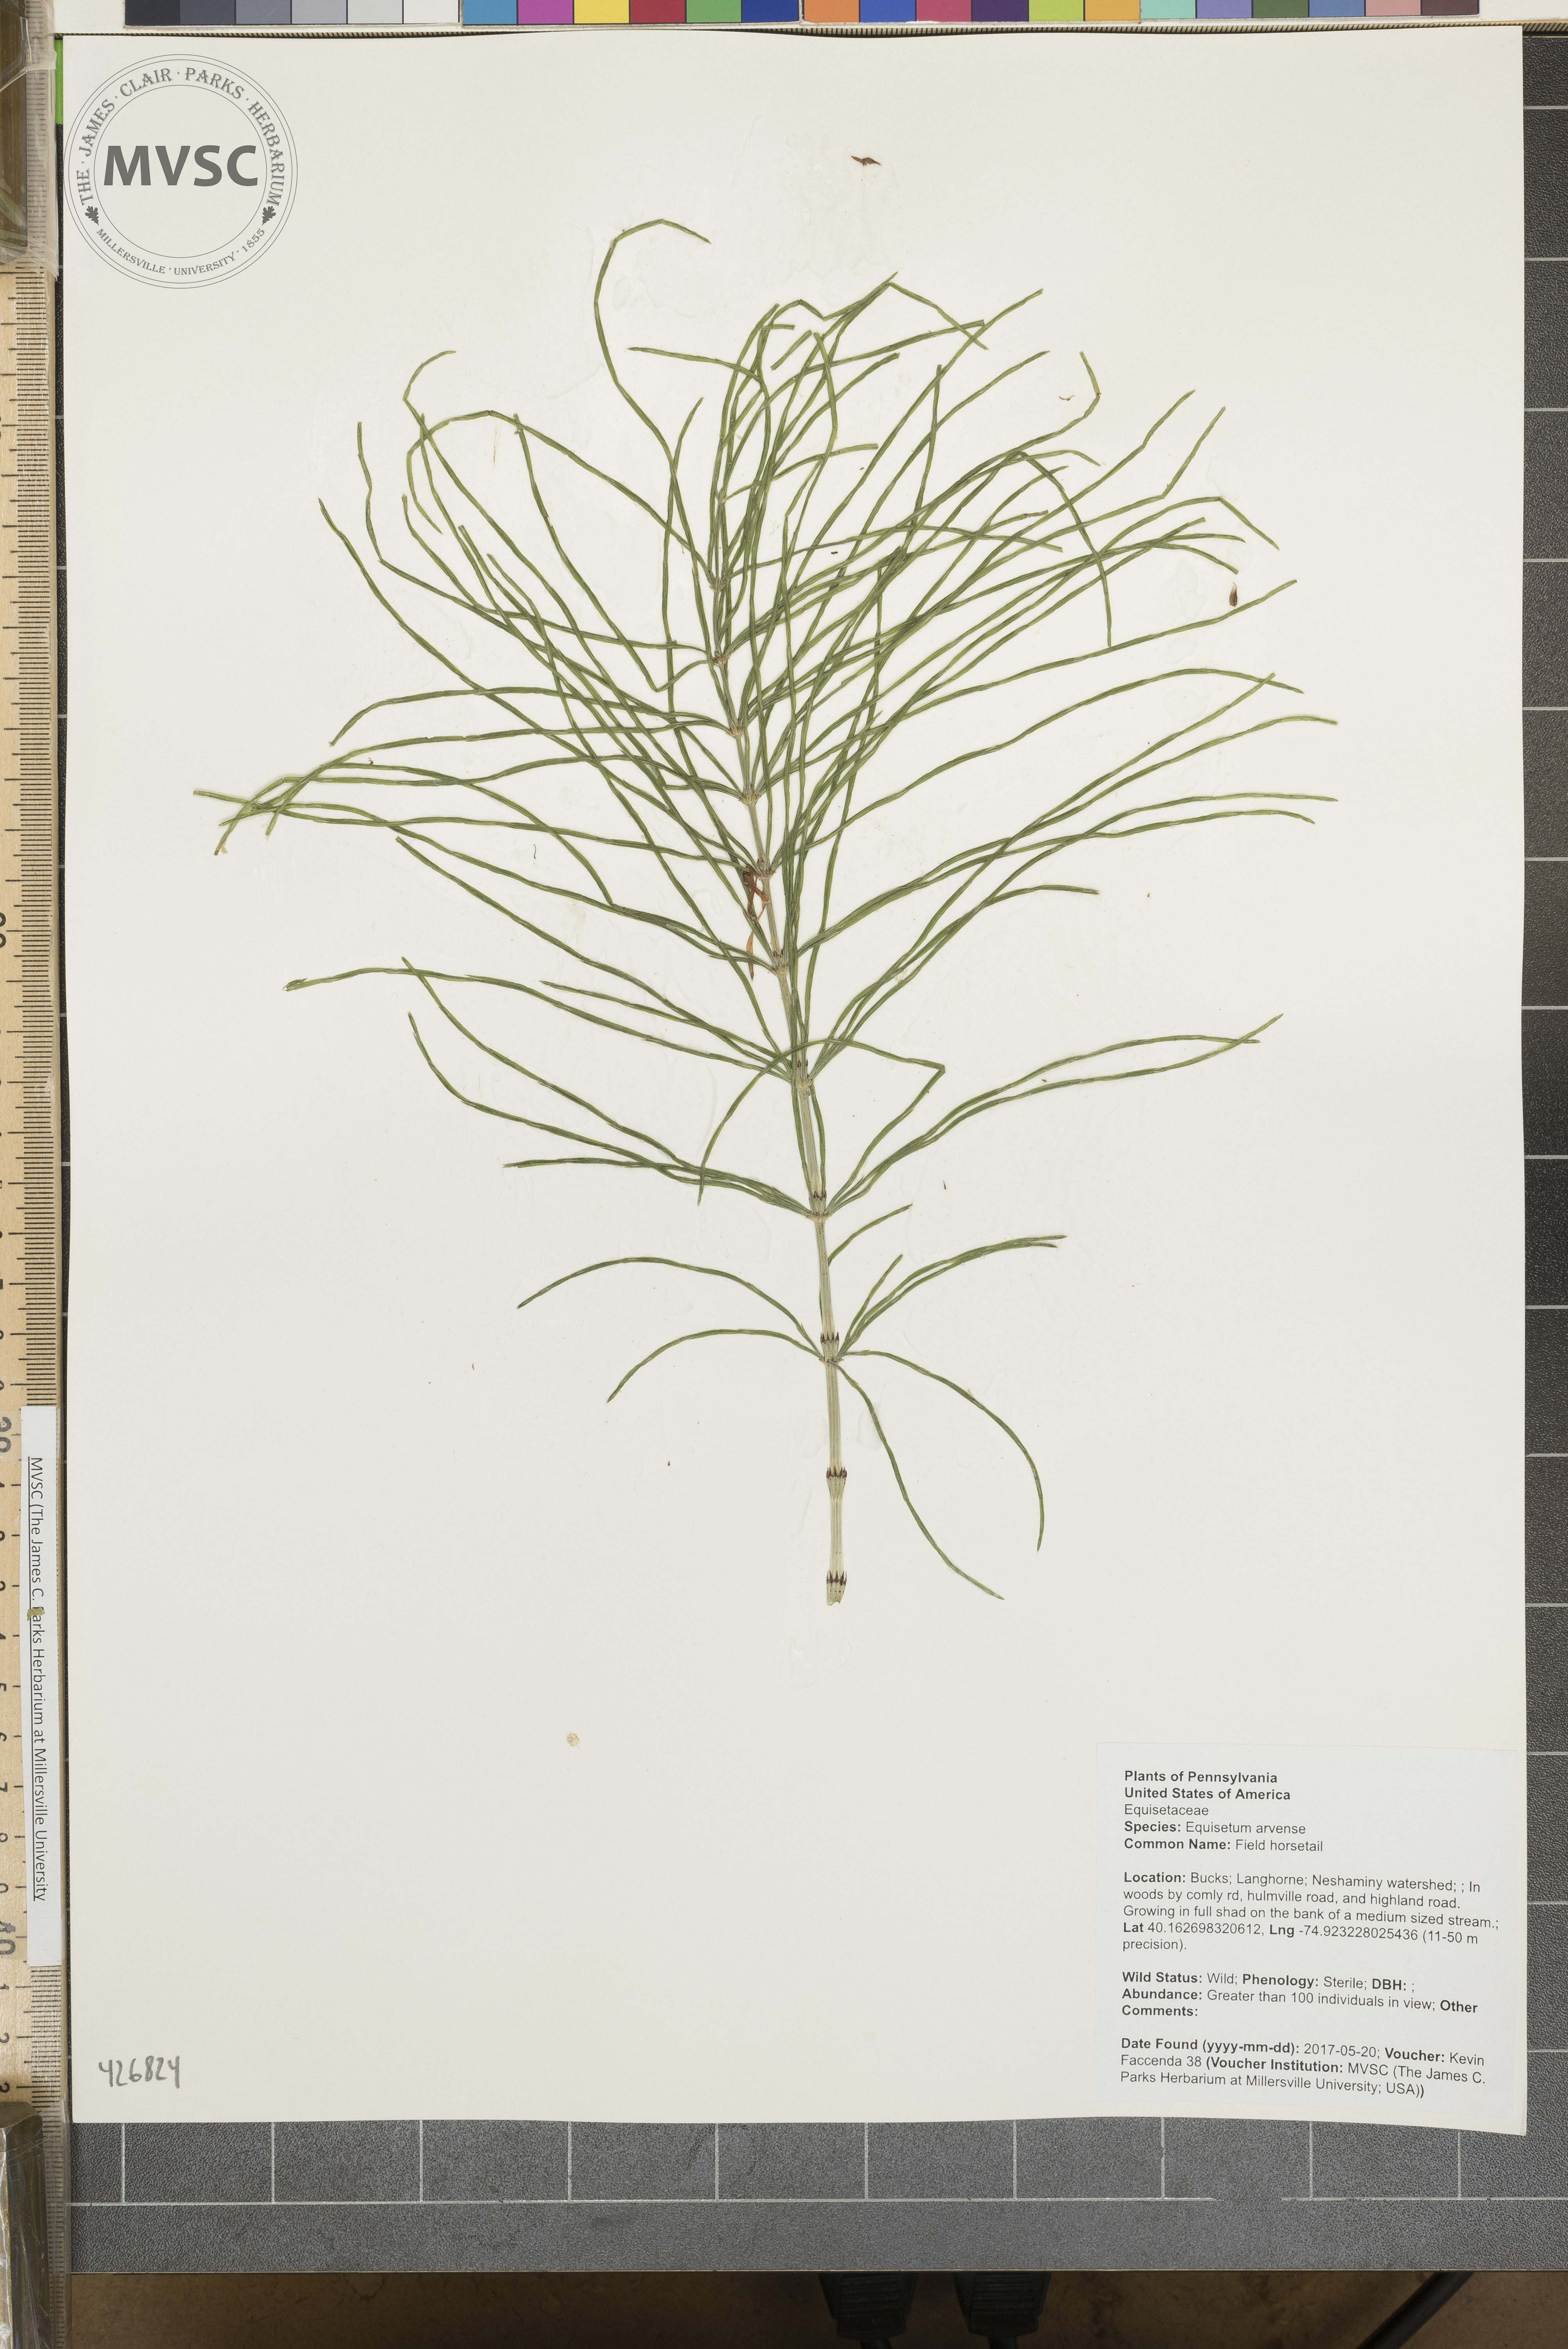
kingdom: Plantae
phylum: Tracheophyta
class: Polypodiopsida
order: Equisetales
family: Equisetaceae
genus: Equisetum
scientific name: Equisetum arvense
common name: Field horsetail
